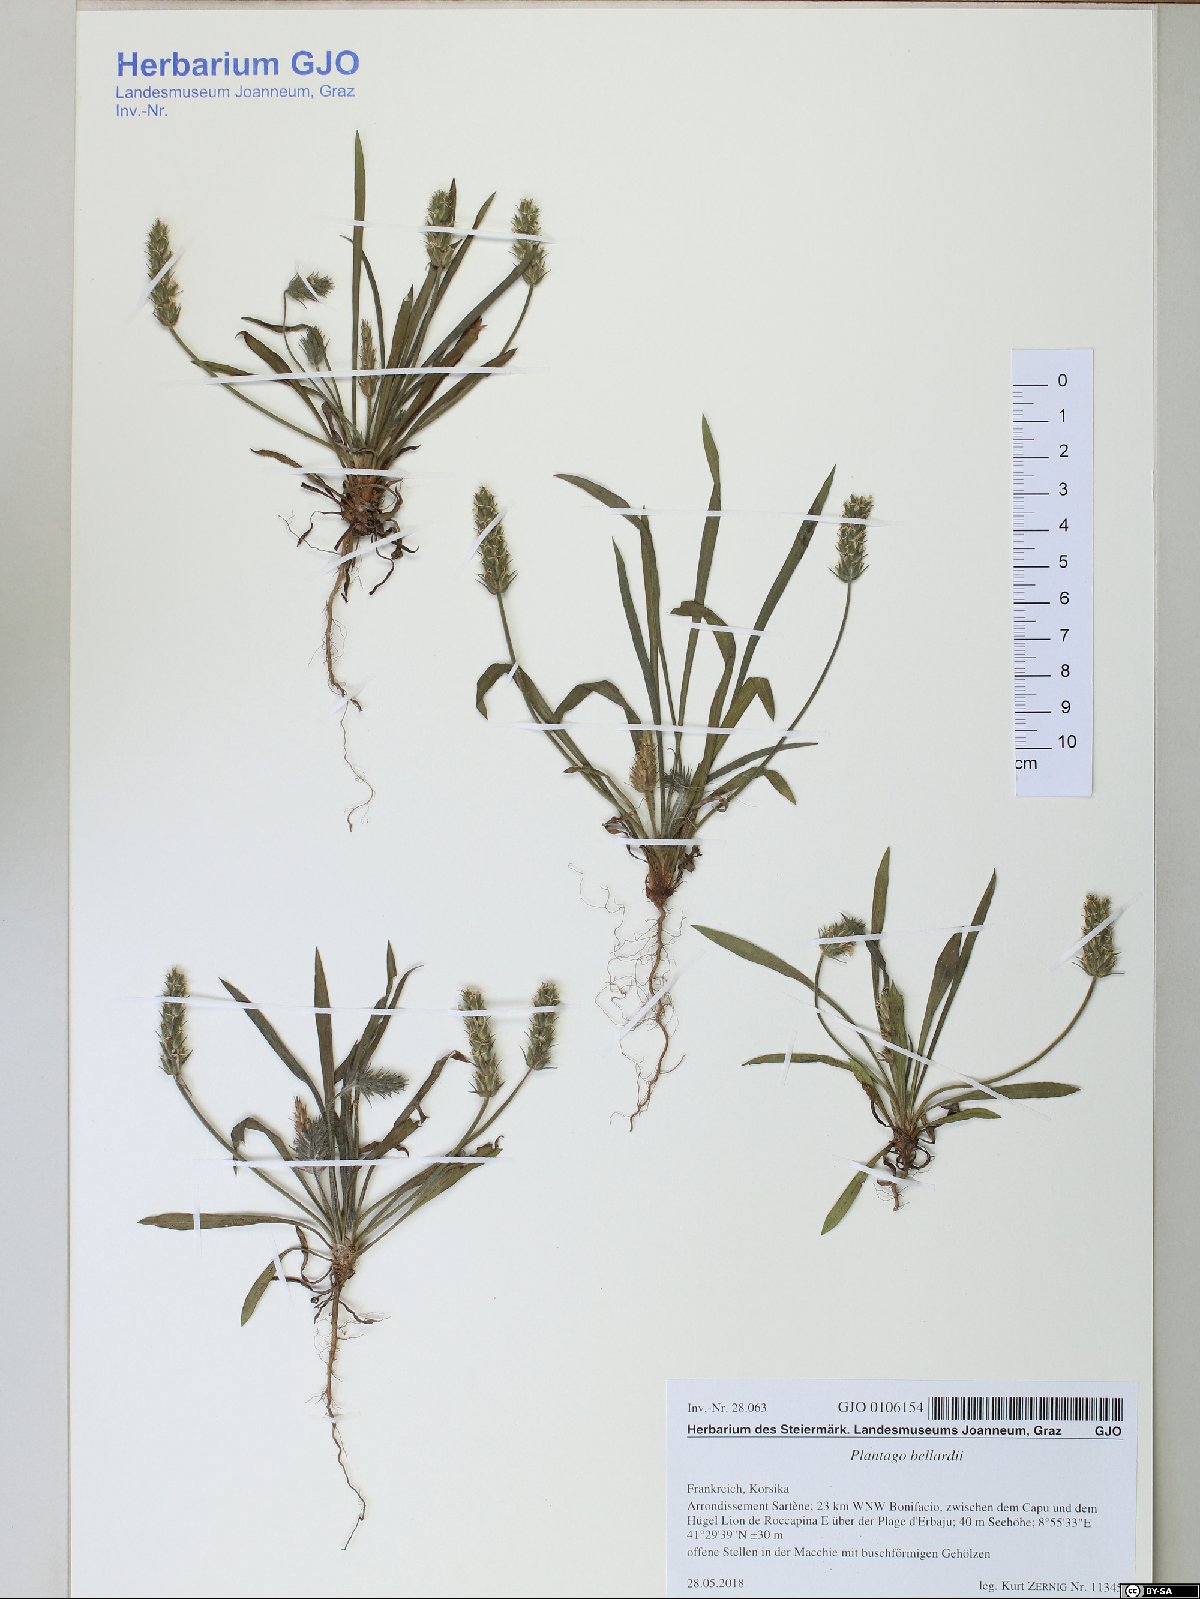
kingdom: Plantae
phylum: Tracheophyta
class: Magnoliopsida
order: Lamiales
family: Plantaginaceae
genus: Plantago
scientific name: Plantago bellardii
